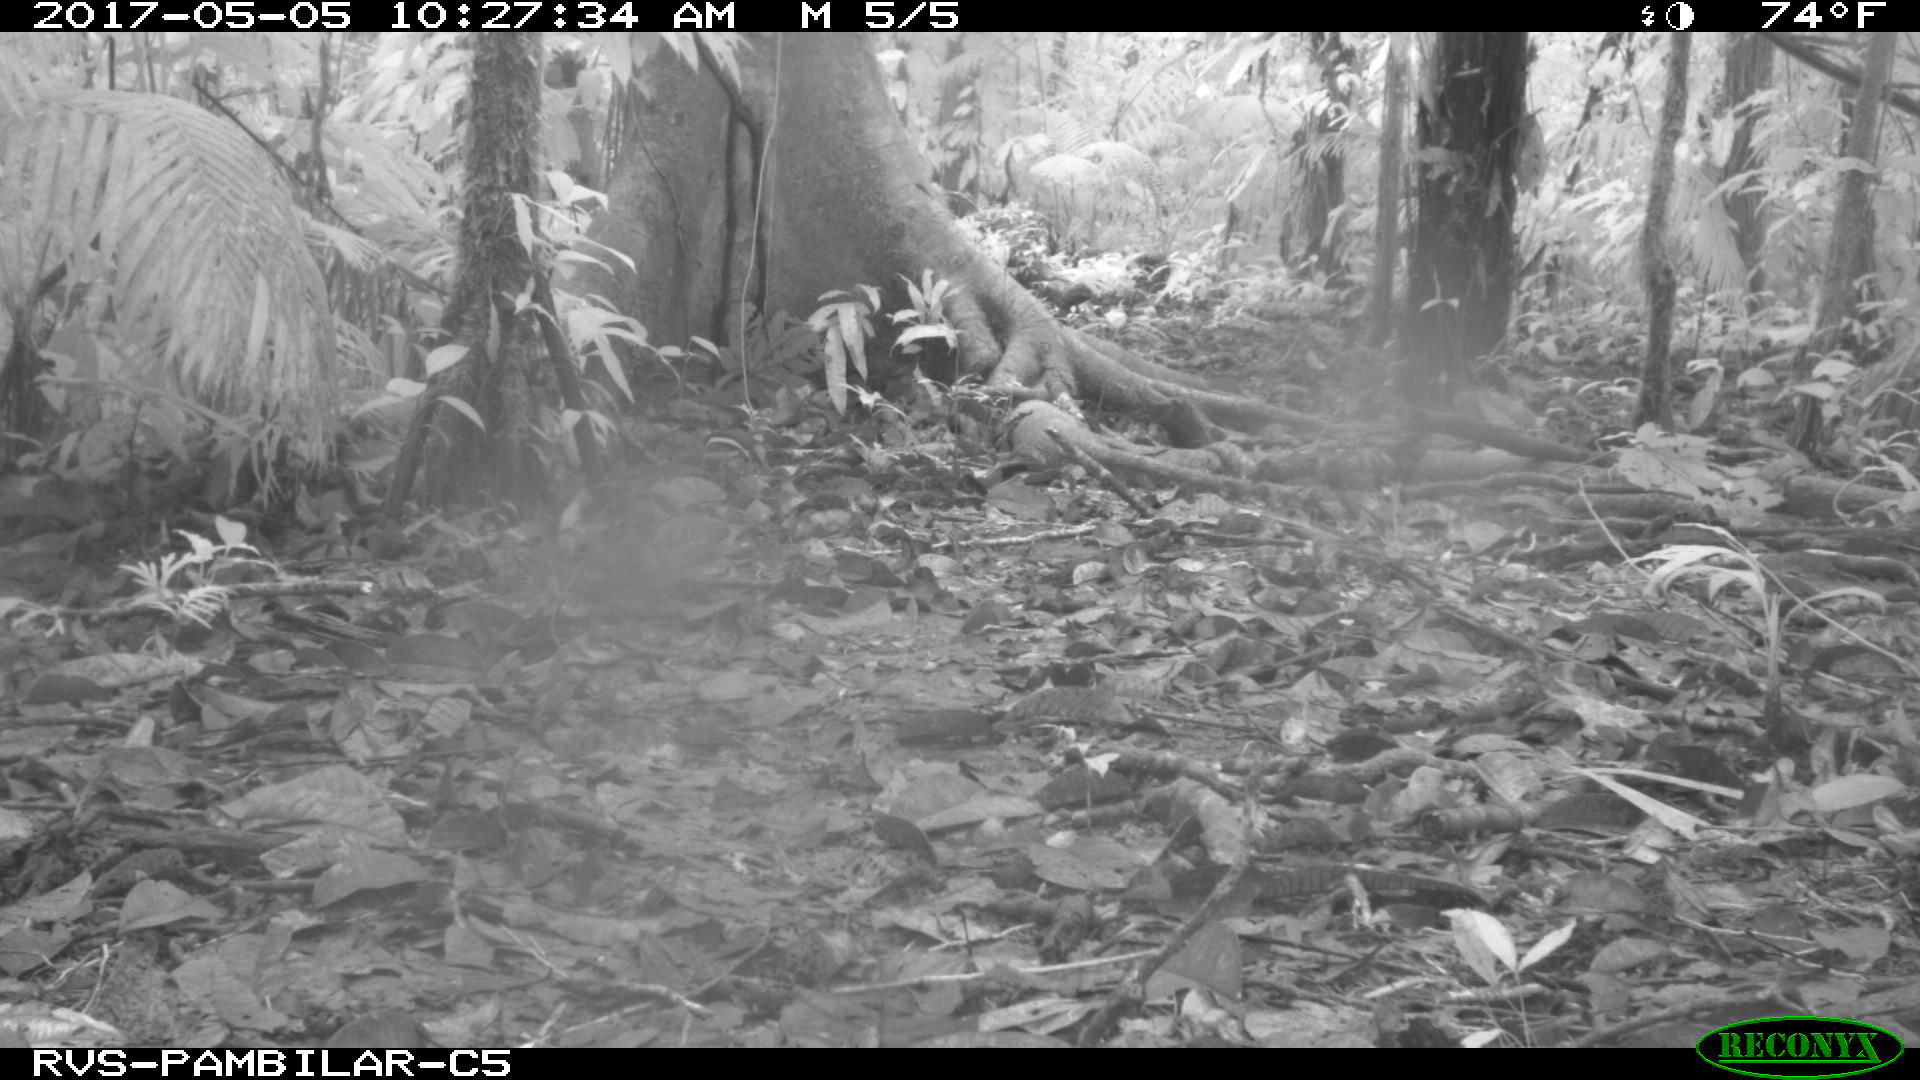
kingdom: Animalia
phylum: Chordata
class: Mammalia
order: Rodentia
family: Dasyproctidae
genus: Dasyprocta
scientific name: Dasyprocta punctata
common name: Central american agouti
